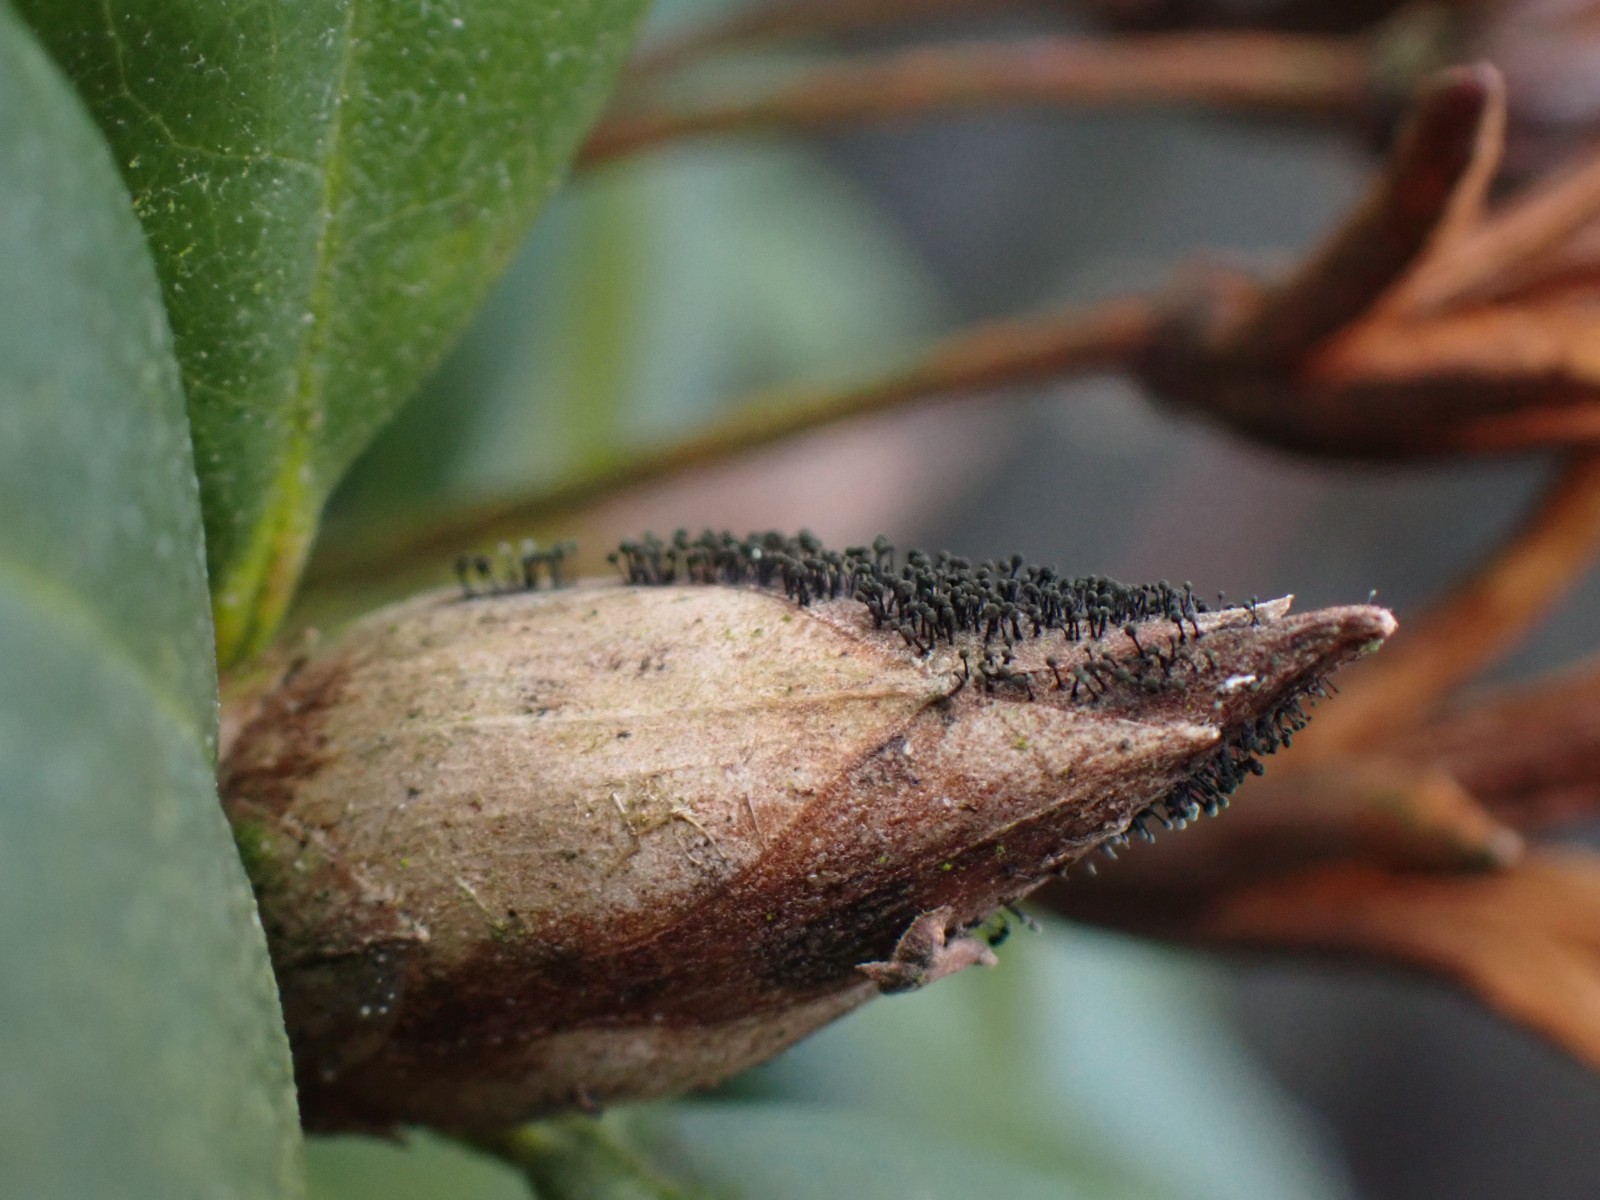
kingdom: Fungi
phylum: Ascomycota
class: Dothideomycetes
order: Pleosporales
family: Melanommataceae
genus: Seifertia
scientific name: Seifertia azaleae
